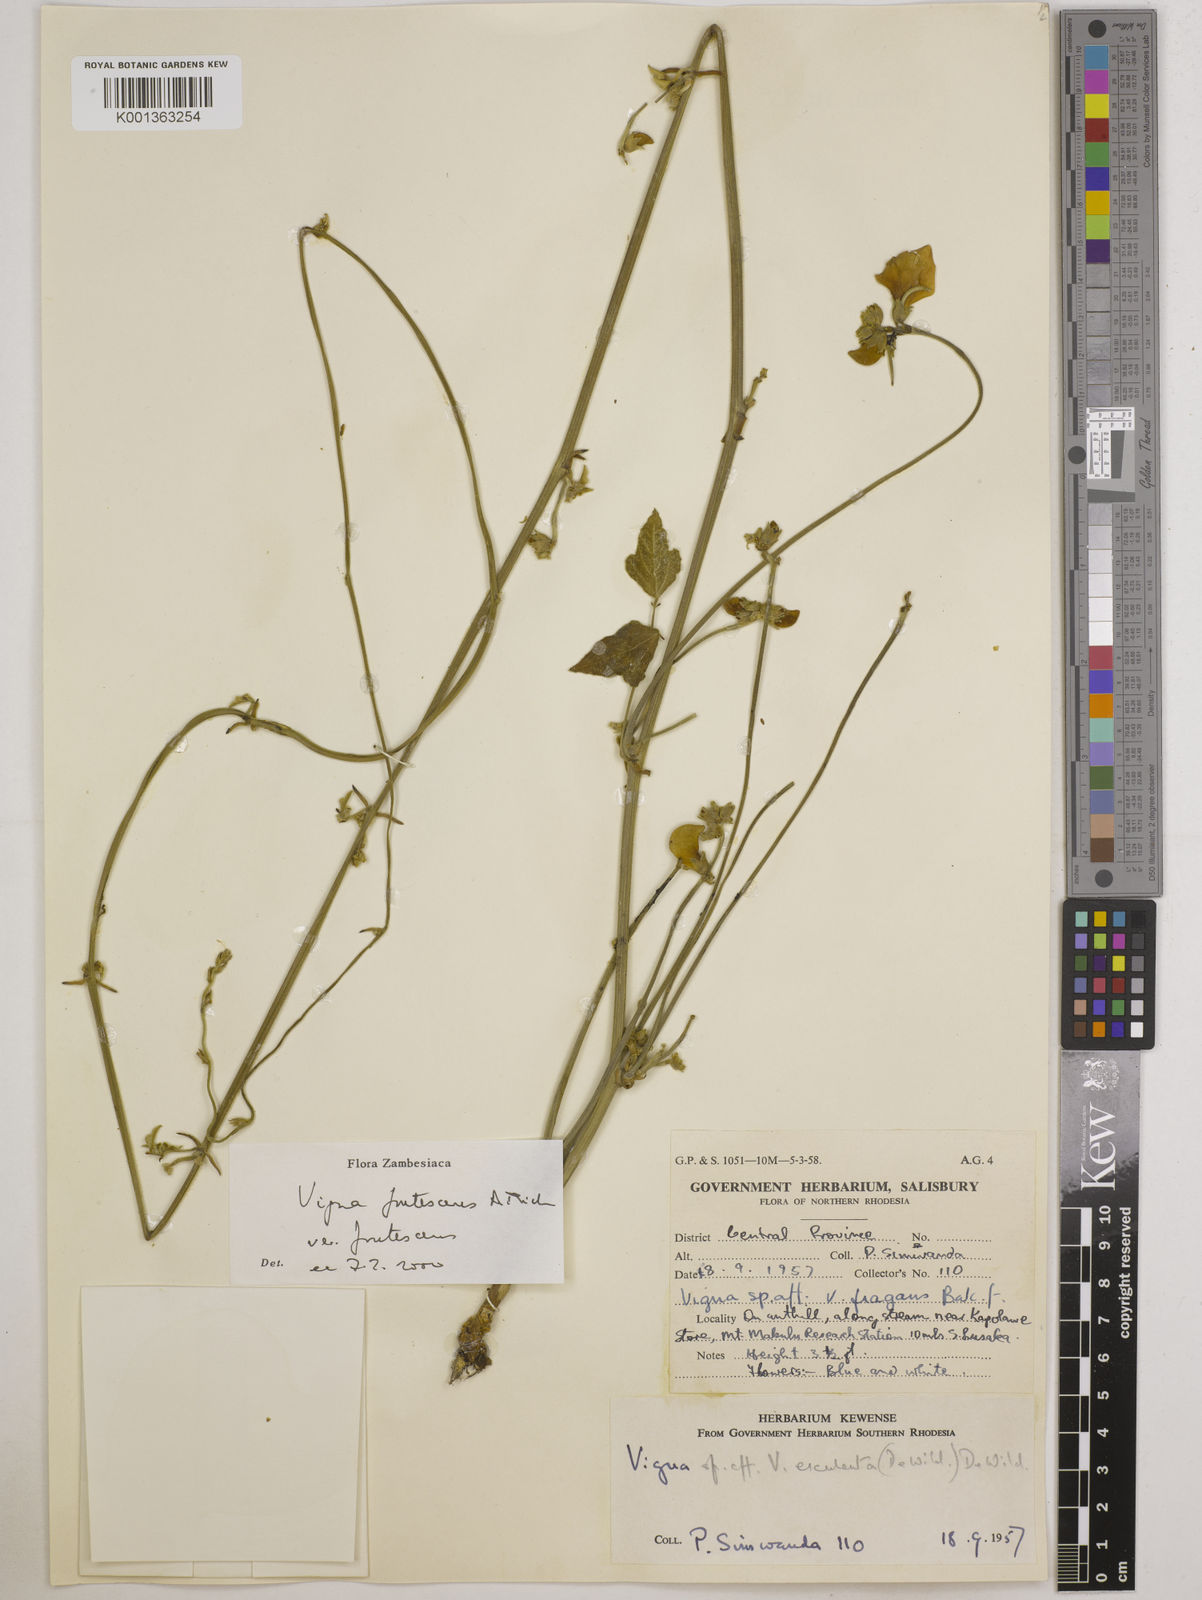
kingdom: Plantae
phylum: Tracheophyta
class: Magnoliopsida
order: Fabales
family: Fabaceae
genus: Vigna
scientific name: Vigna
